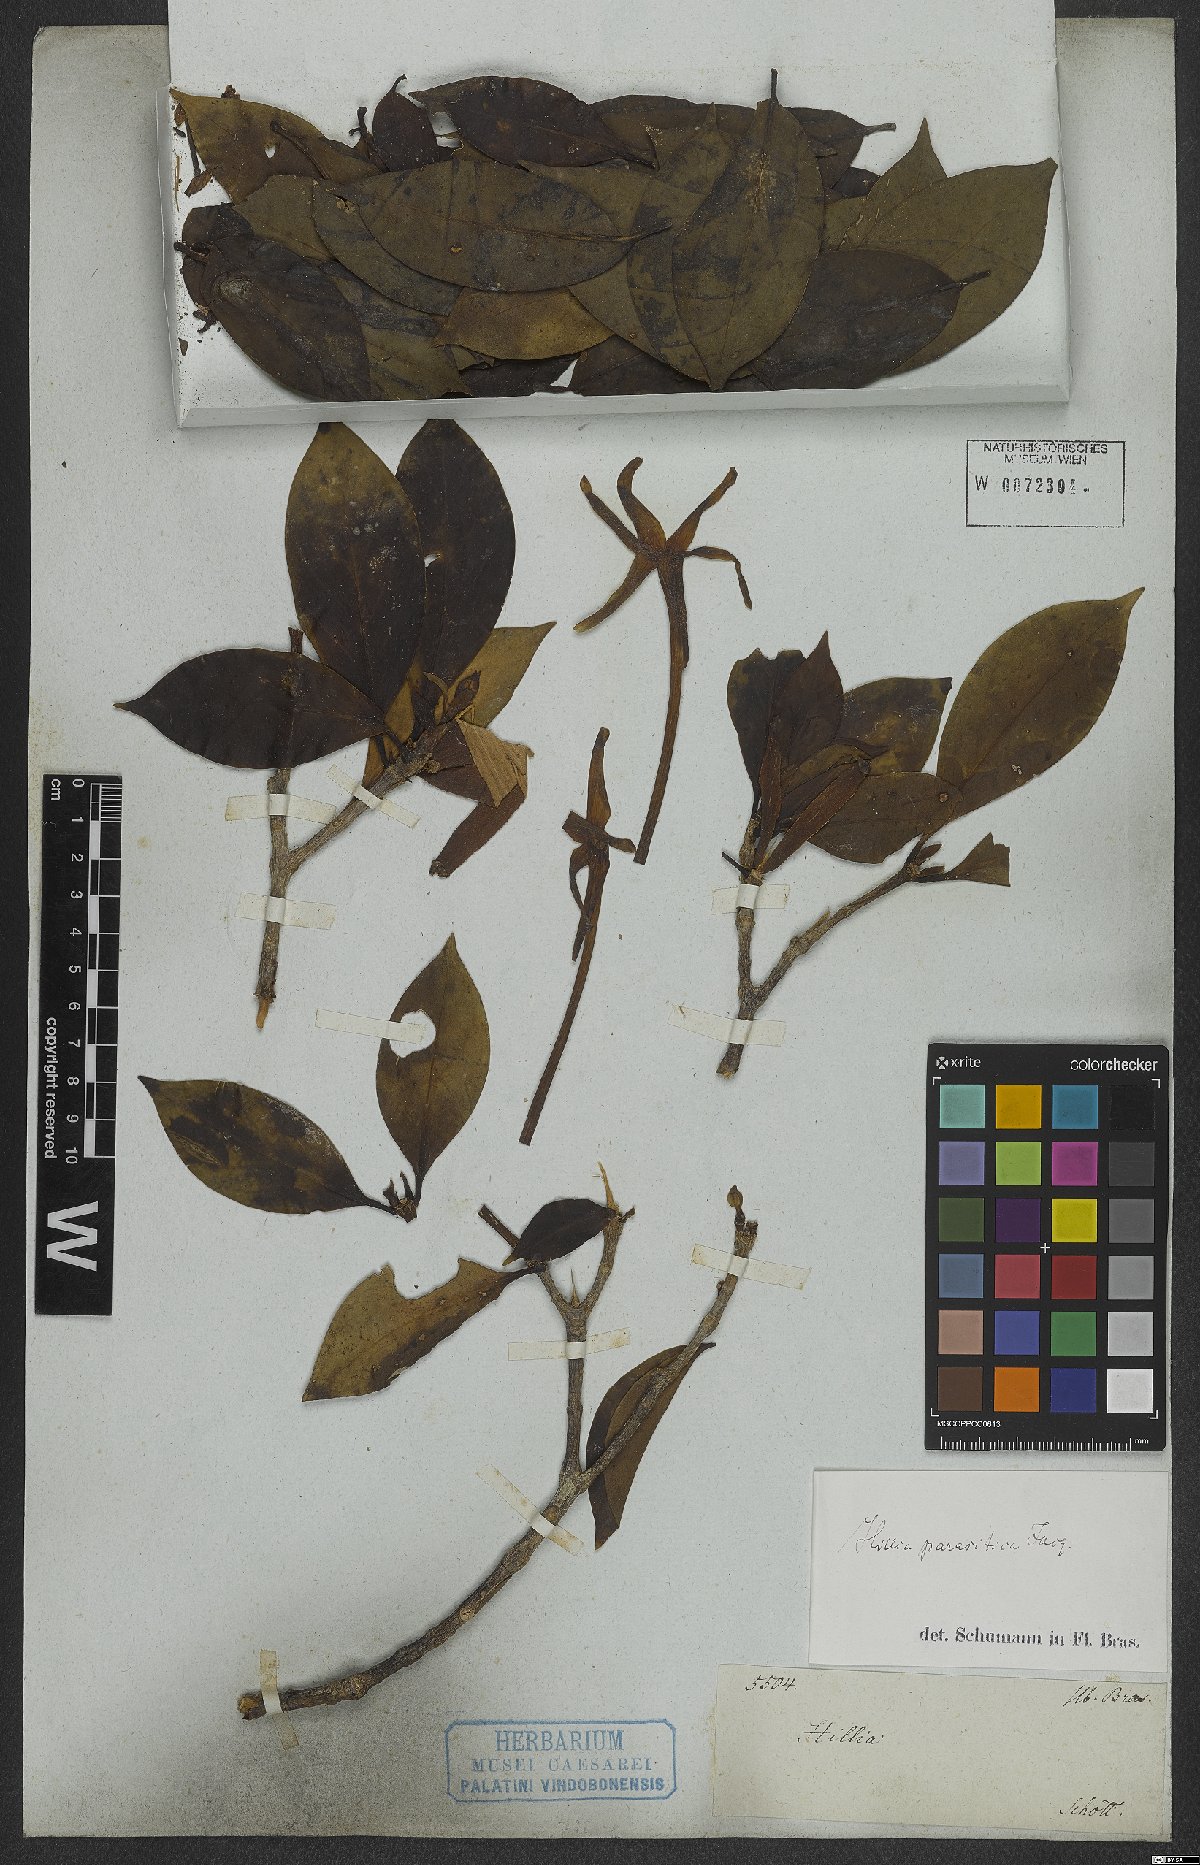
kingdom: Plantae
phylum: Tracheophyta
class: Magnoliopsida
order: Gentianales
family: Rubiaceae
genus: Hillia
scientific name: Hillia parasitica
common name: Morning star
